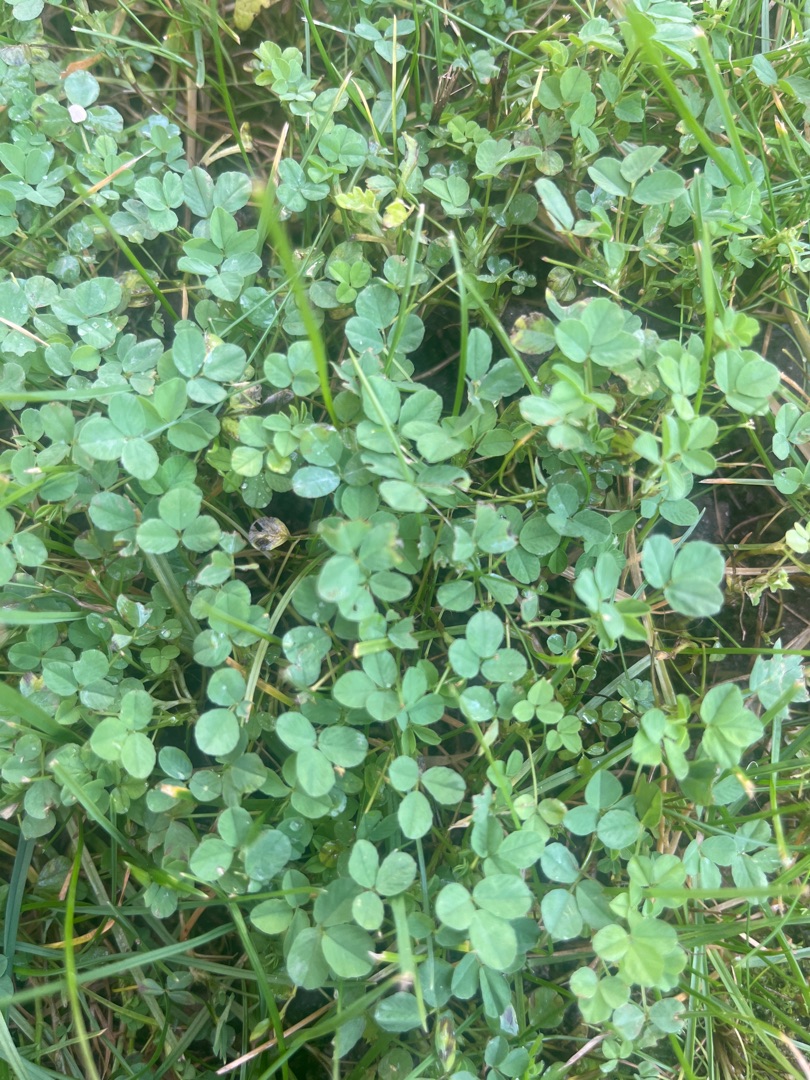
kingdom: Plantae
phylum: Tracheophyta
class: Magnoliopsida
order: Fabales
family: Fabaceae
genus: Trifolium
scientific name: Trifolium
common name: Kløverslægten
